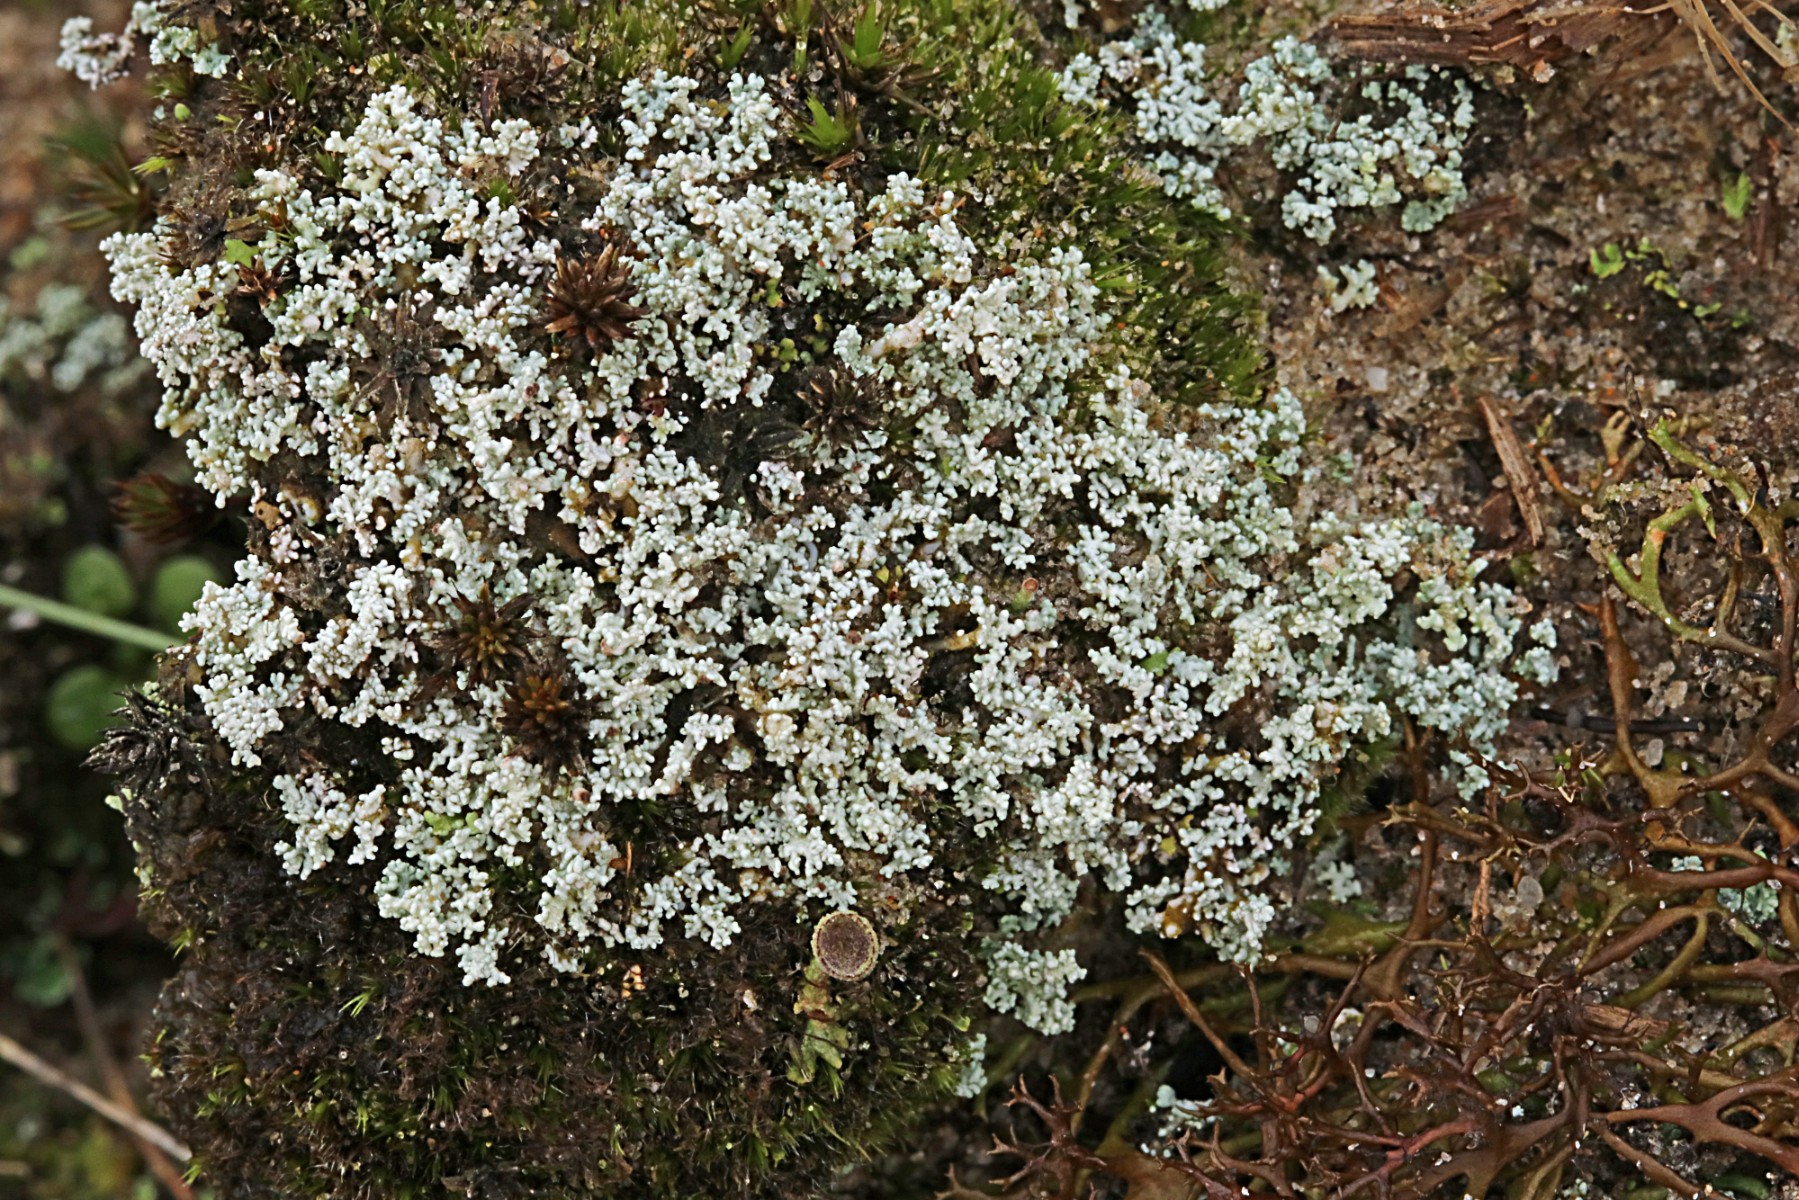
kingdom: Fungi
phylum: Ascomycota
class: Lecanoromycetes
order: Lecanorales
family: Stereocaulaceae
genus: Stereocaulon
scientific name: Stereocaulon condensatum
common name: lav korallav
